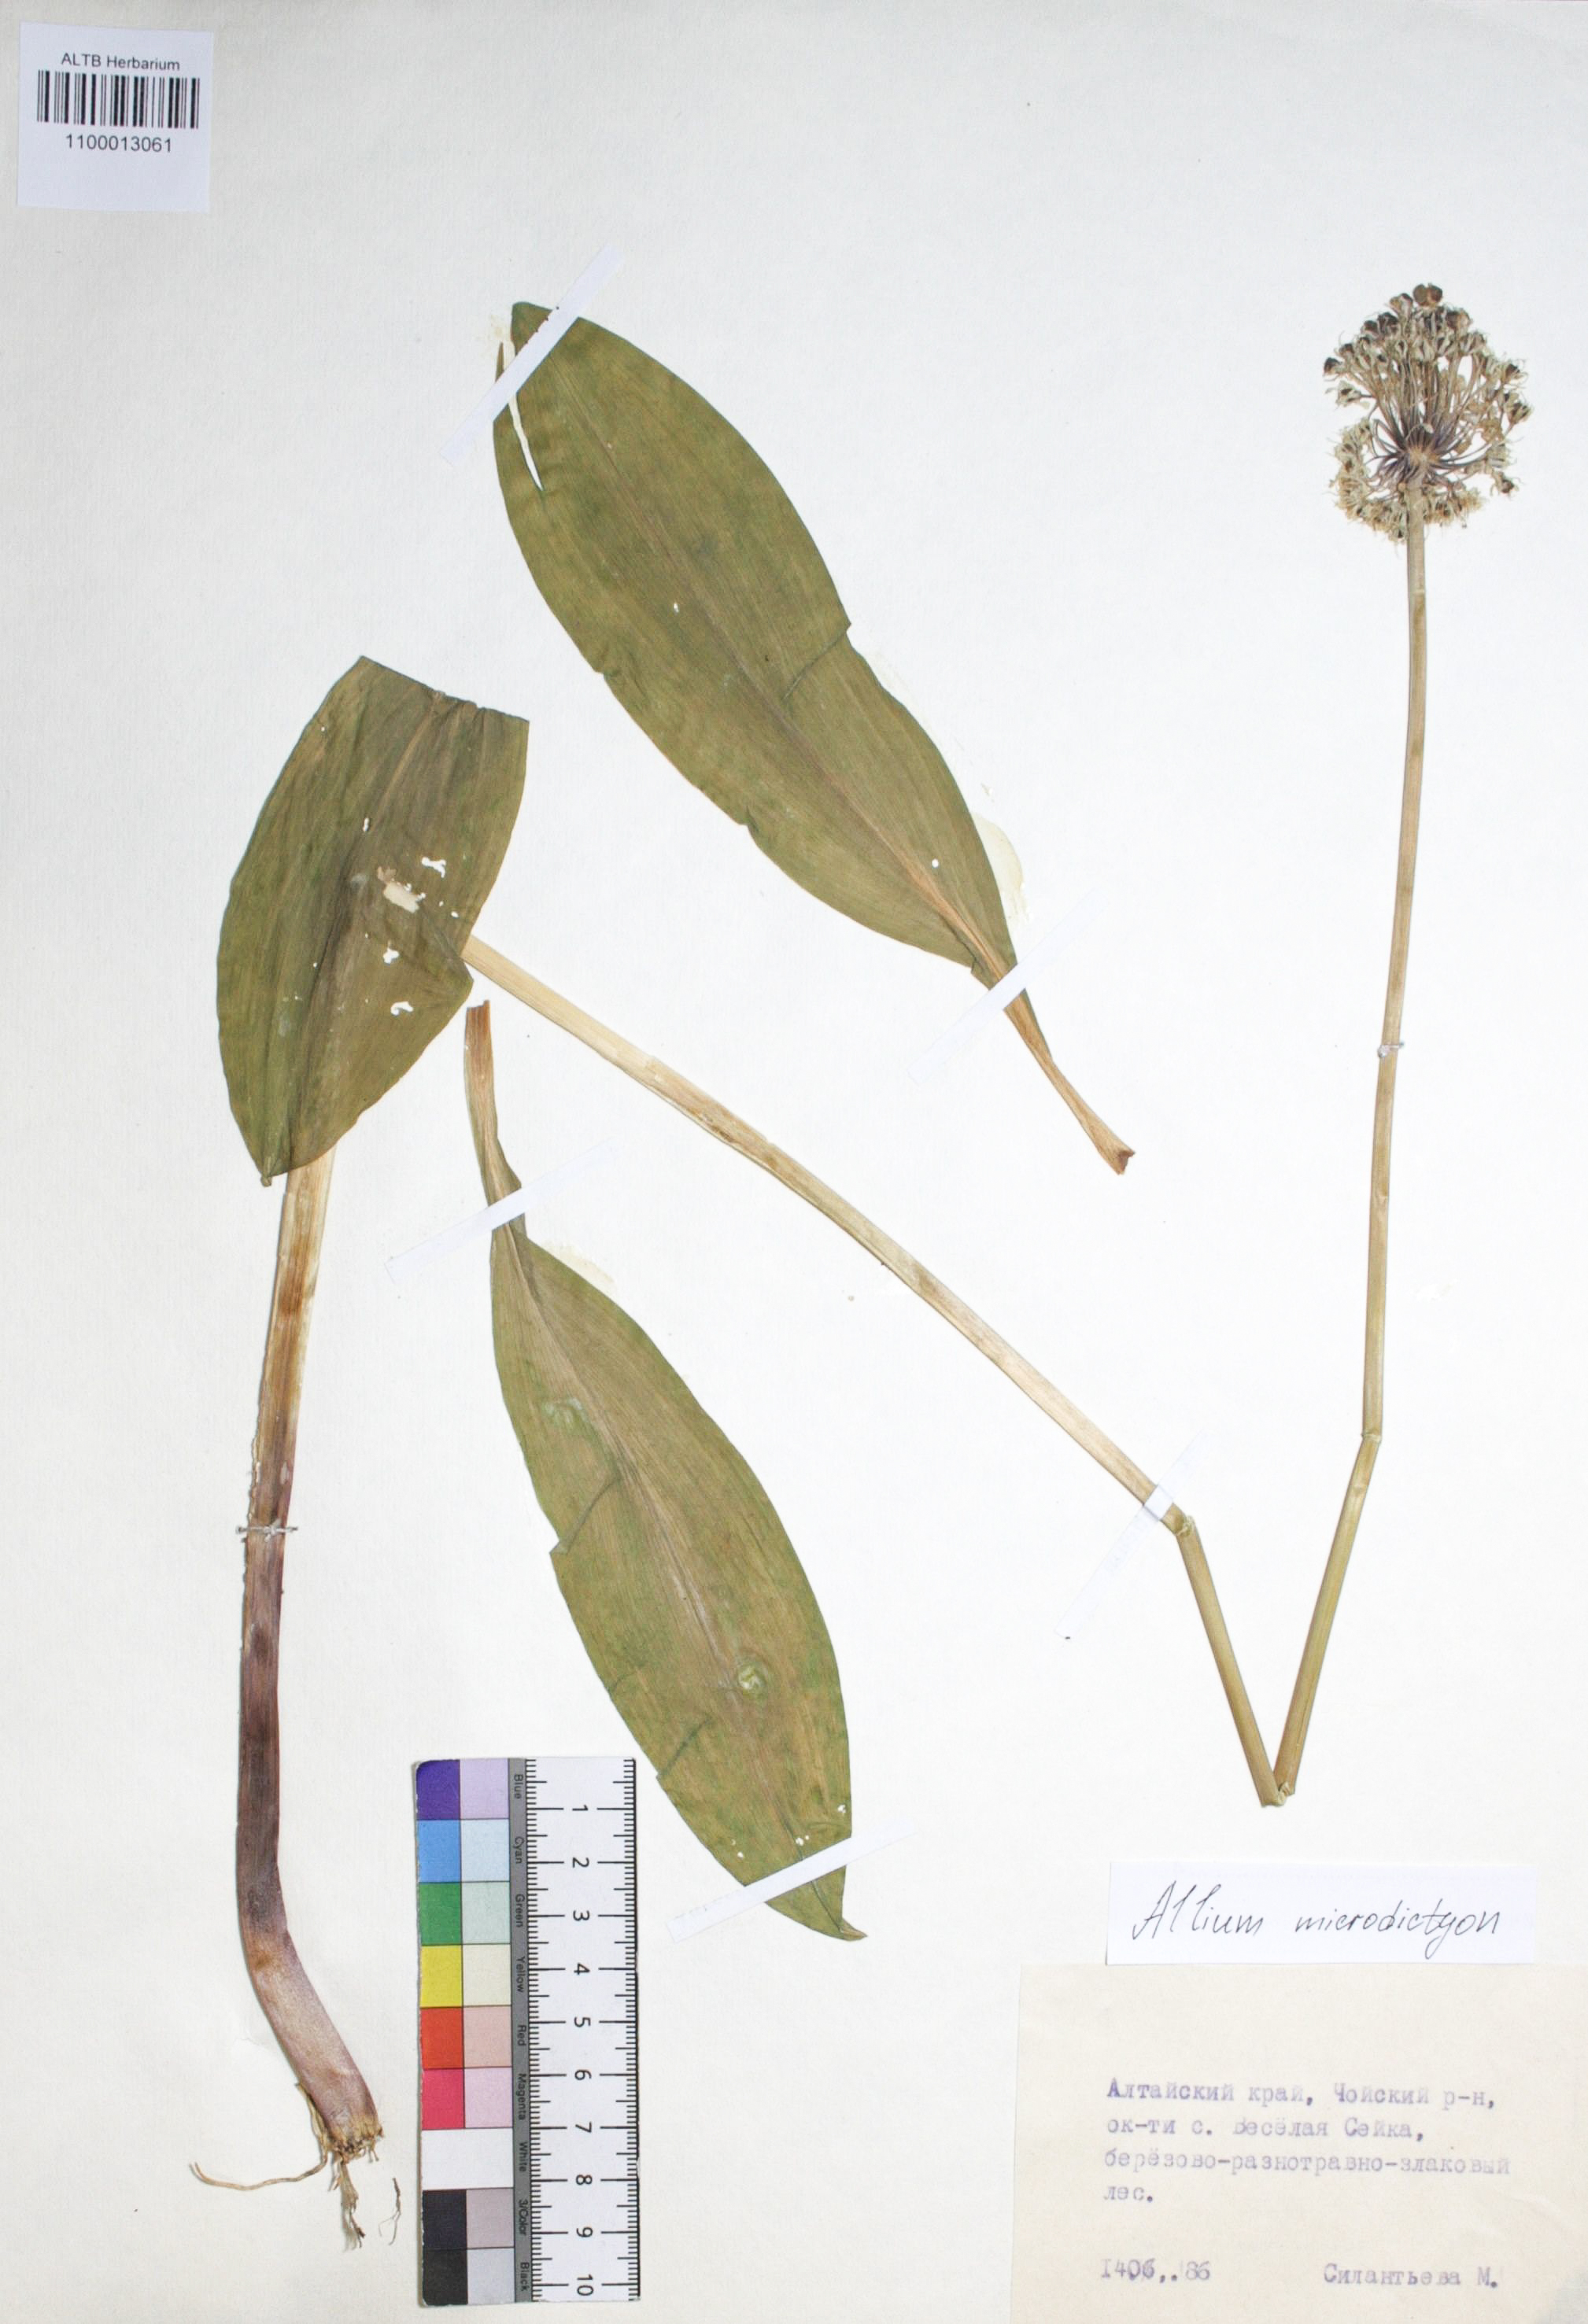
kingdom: Plantae
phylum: Tracheophyta
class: Liliopsida
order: Asparagales
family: Amaryllidaceae
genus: Allium
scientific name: Allium microdictyon
